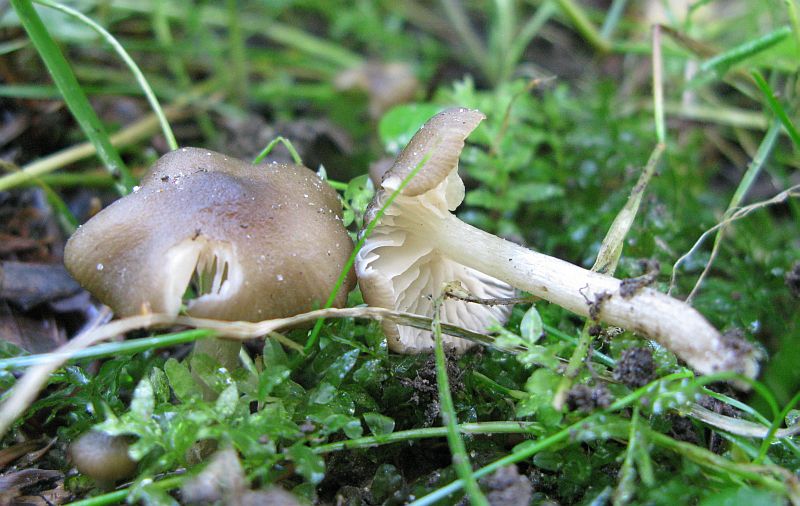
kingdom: Fungi
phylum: Basidiomycota
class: Agaricomycetes
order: Agaricales
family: Entolomataceae
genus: Entoloma
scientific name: Entoloma
